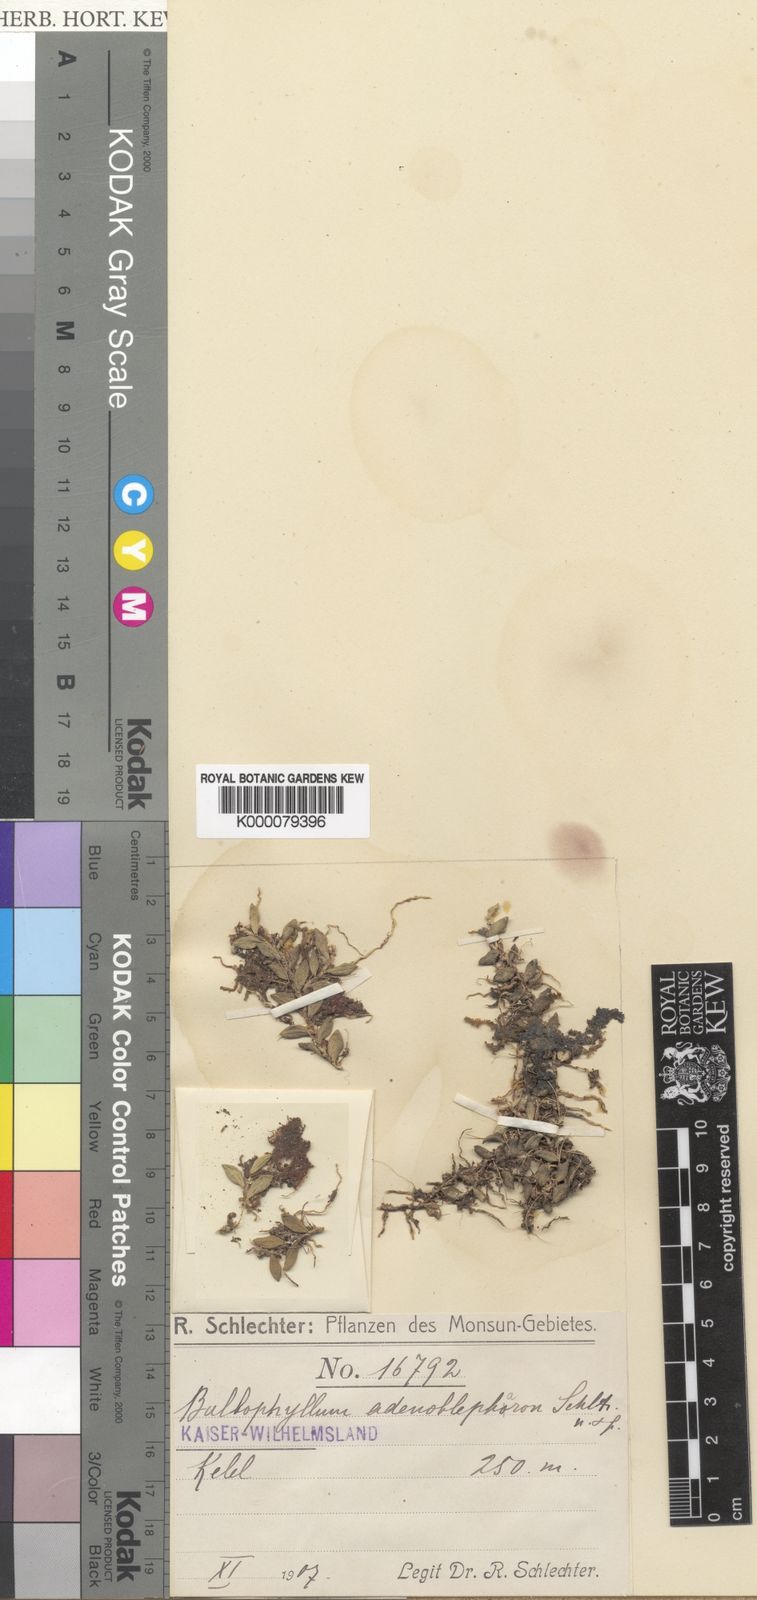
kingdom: Plantae
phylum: Tracheophyta
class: Liliopsida
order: Asparagales
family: Orchidaceae
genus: Bulbophyllum
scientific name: Bulbophyllum adenoblepharon
